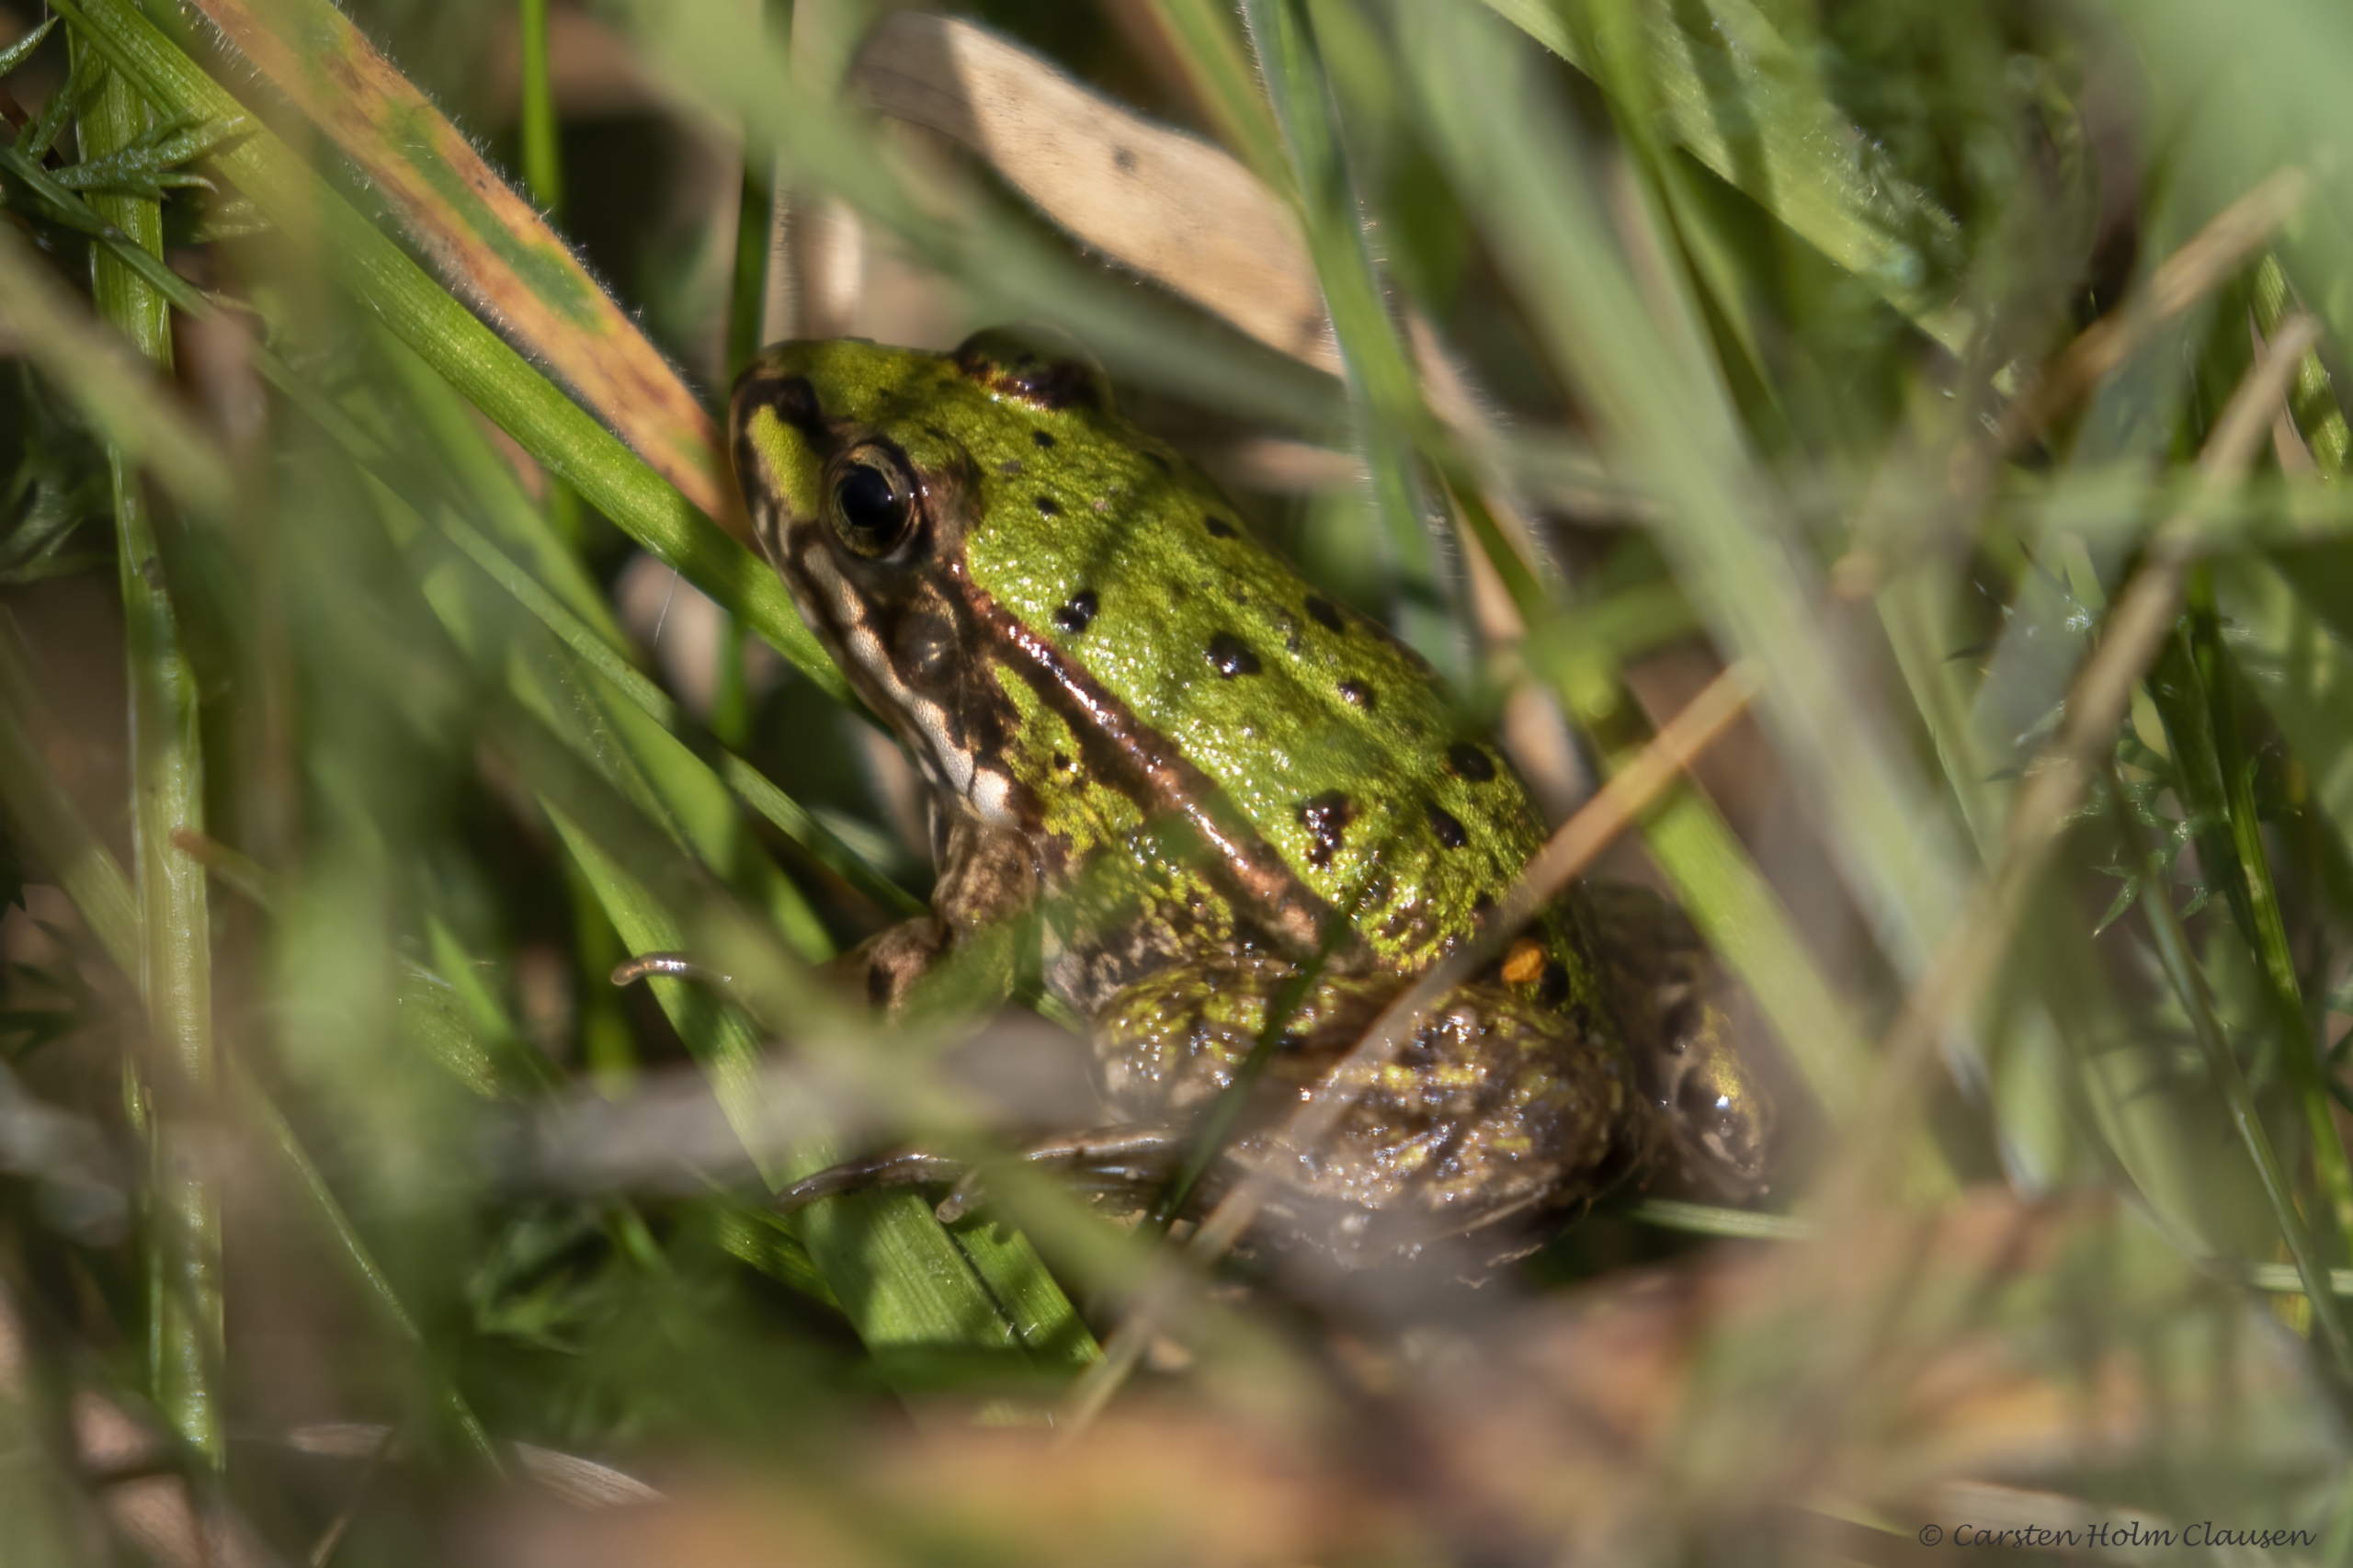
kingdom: Animalia
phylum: Chordata
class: Amphibia
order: Anura
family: Ranidae
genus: Pelophylax
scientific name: Pelophylax lessonae
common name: Grøn frø
